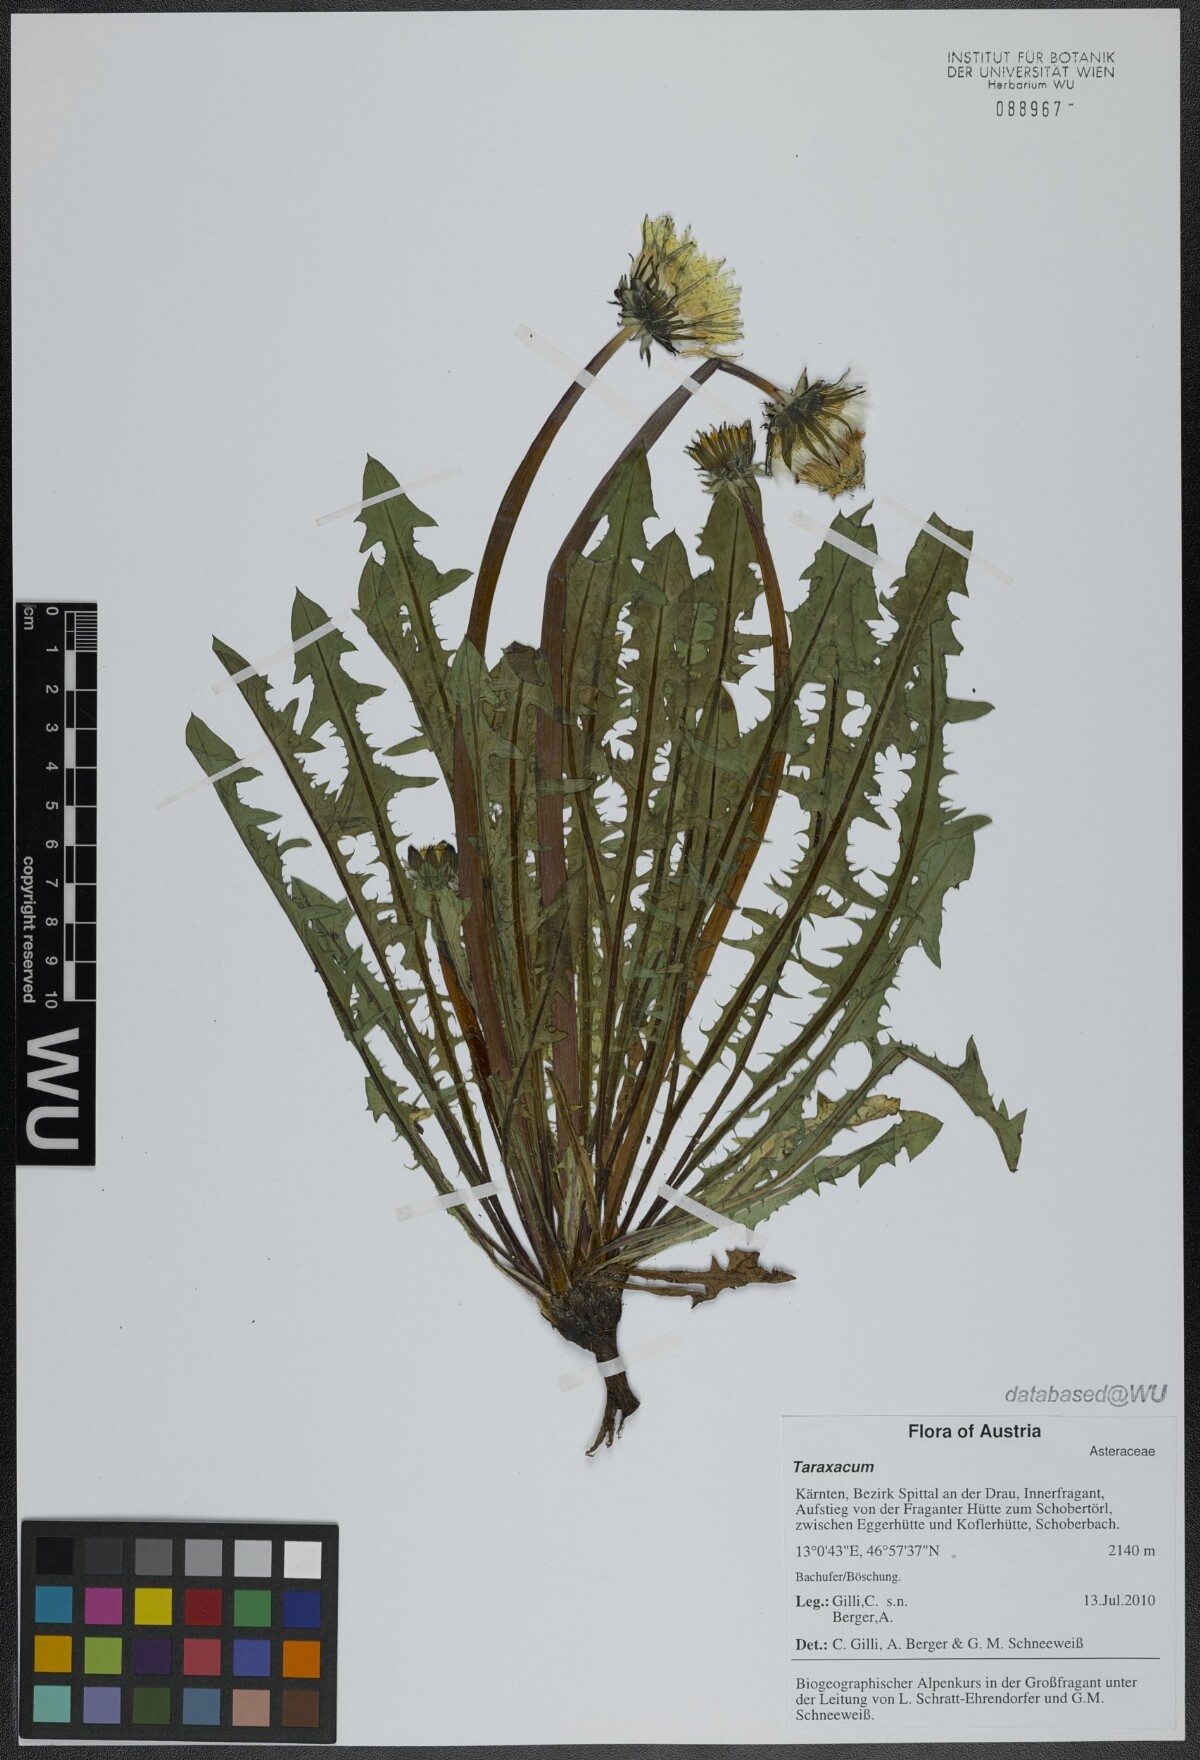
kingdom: Plantae
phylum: Tracheophyta
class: Magnoliopsida
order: Asterales
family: Asteraceae
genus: Taraxacum
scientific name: Taraxacum
